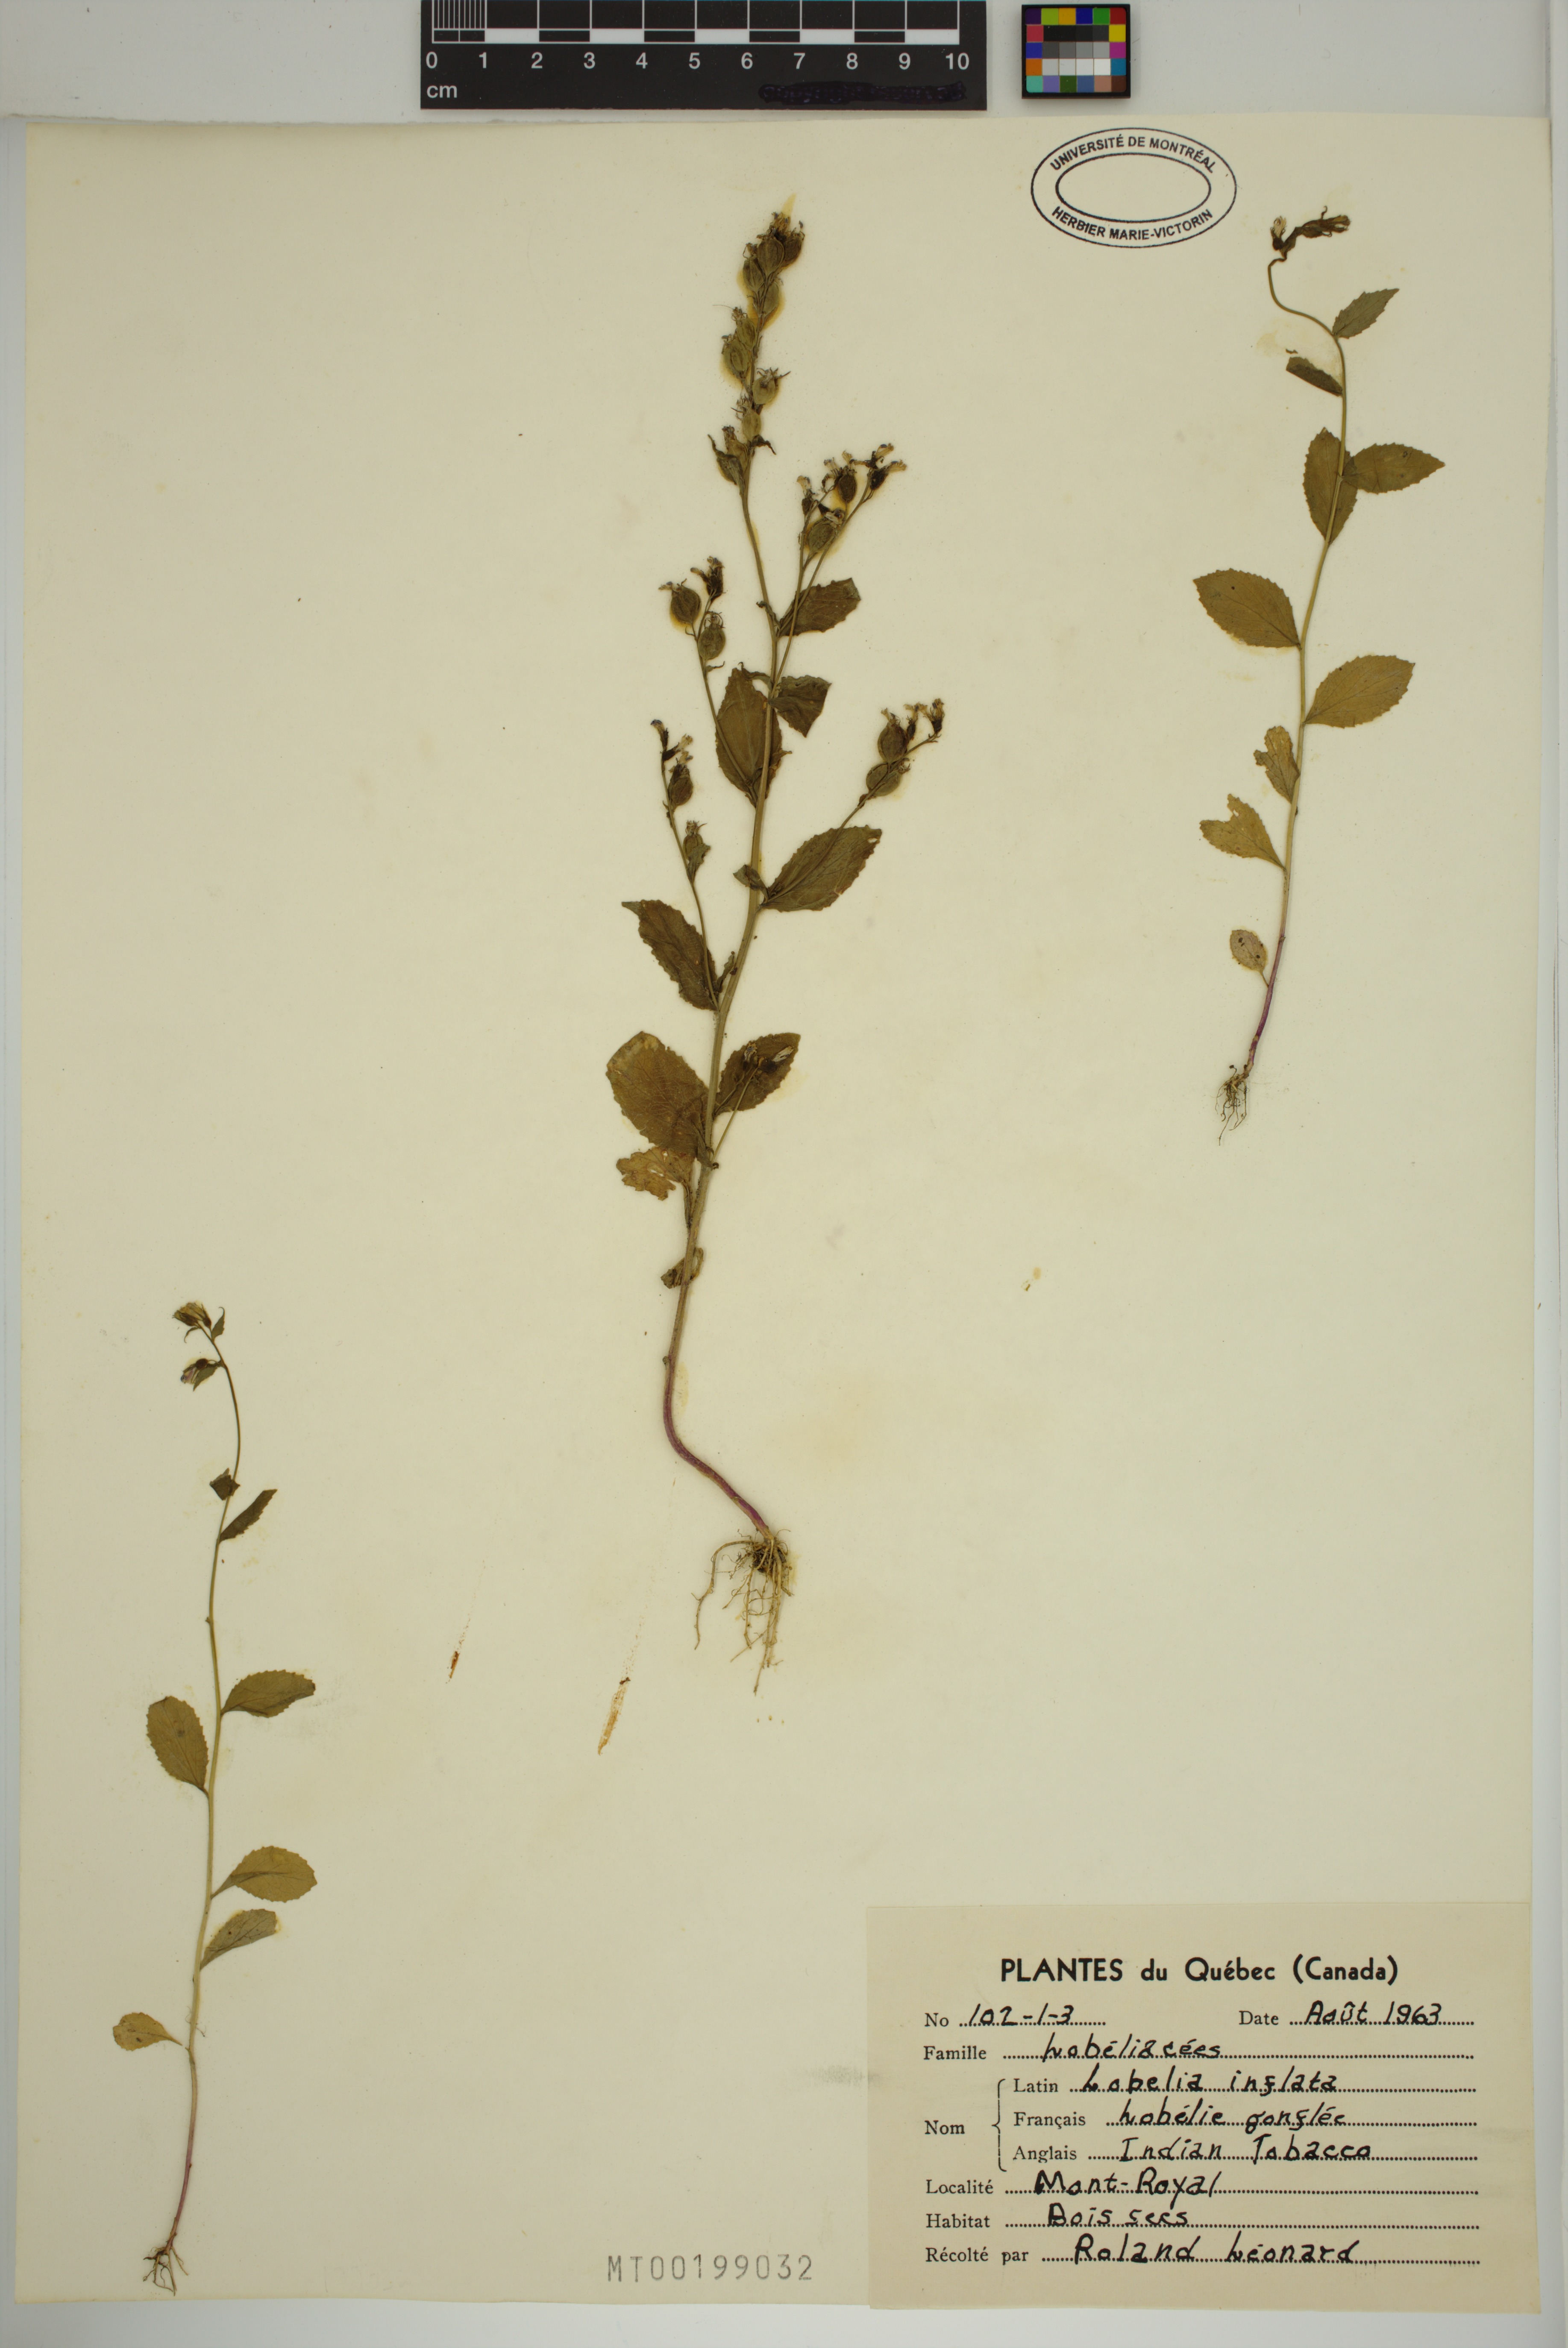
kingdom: Plantae
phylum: Tracheophyta
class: Magnoliopsida
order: Asterales
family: Campanulaceae
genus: Lobelia
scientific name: Lobelia inflata
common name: Indian tobacco
